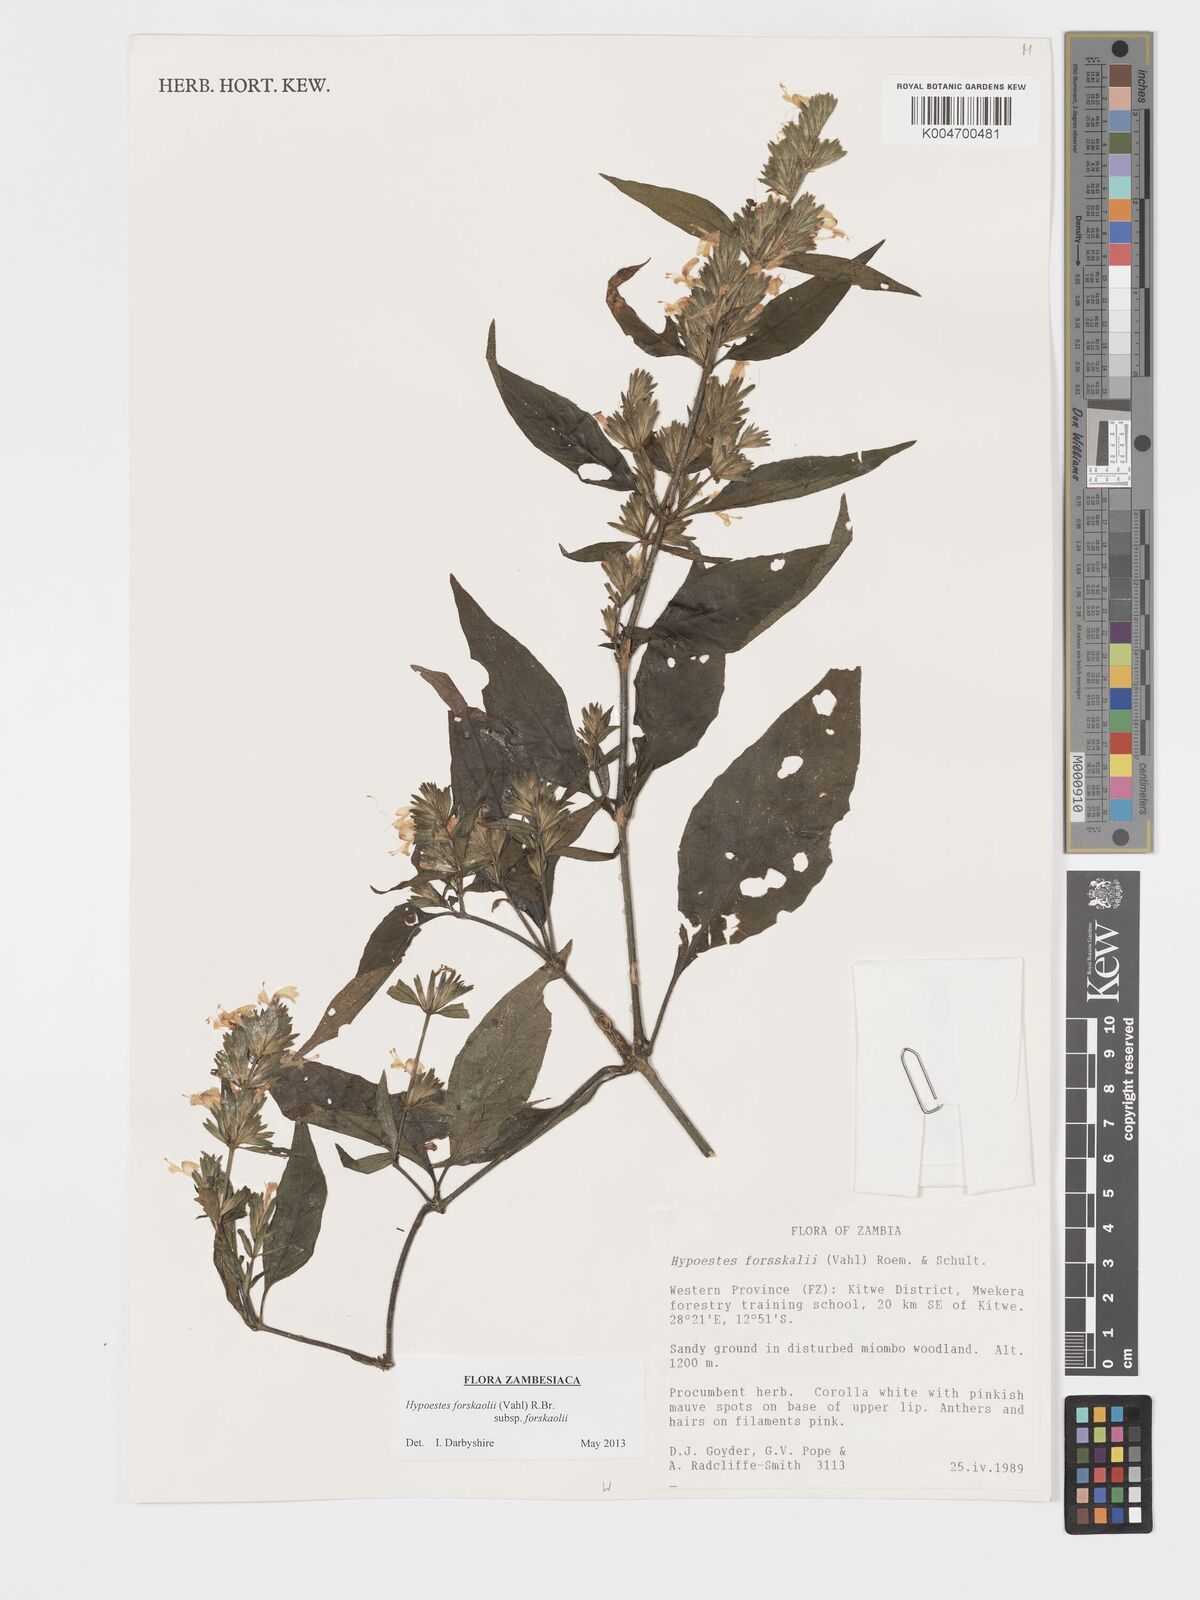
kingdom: Plantae
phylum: Tracheophyta
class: Magnoliopsida
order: Lamiales
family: Acanthaceae
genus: Hypoestes
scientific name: Hypoestes forskaolii
